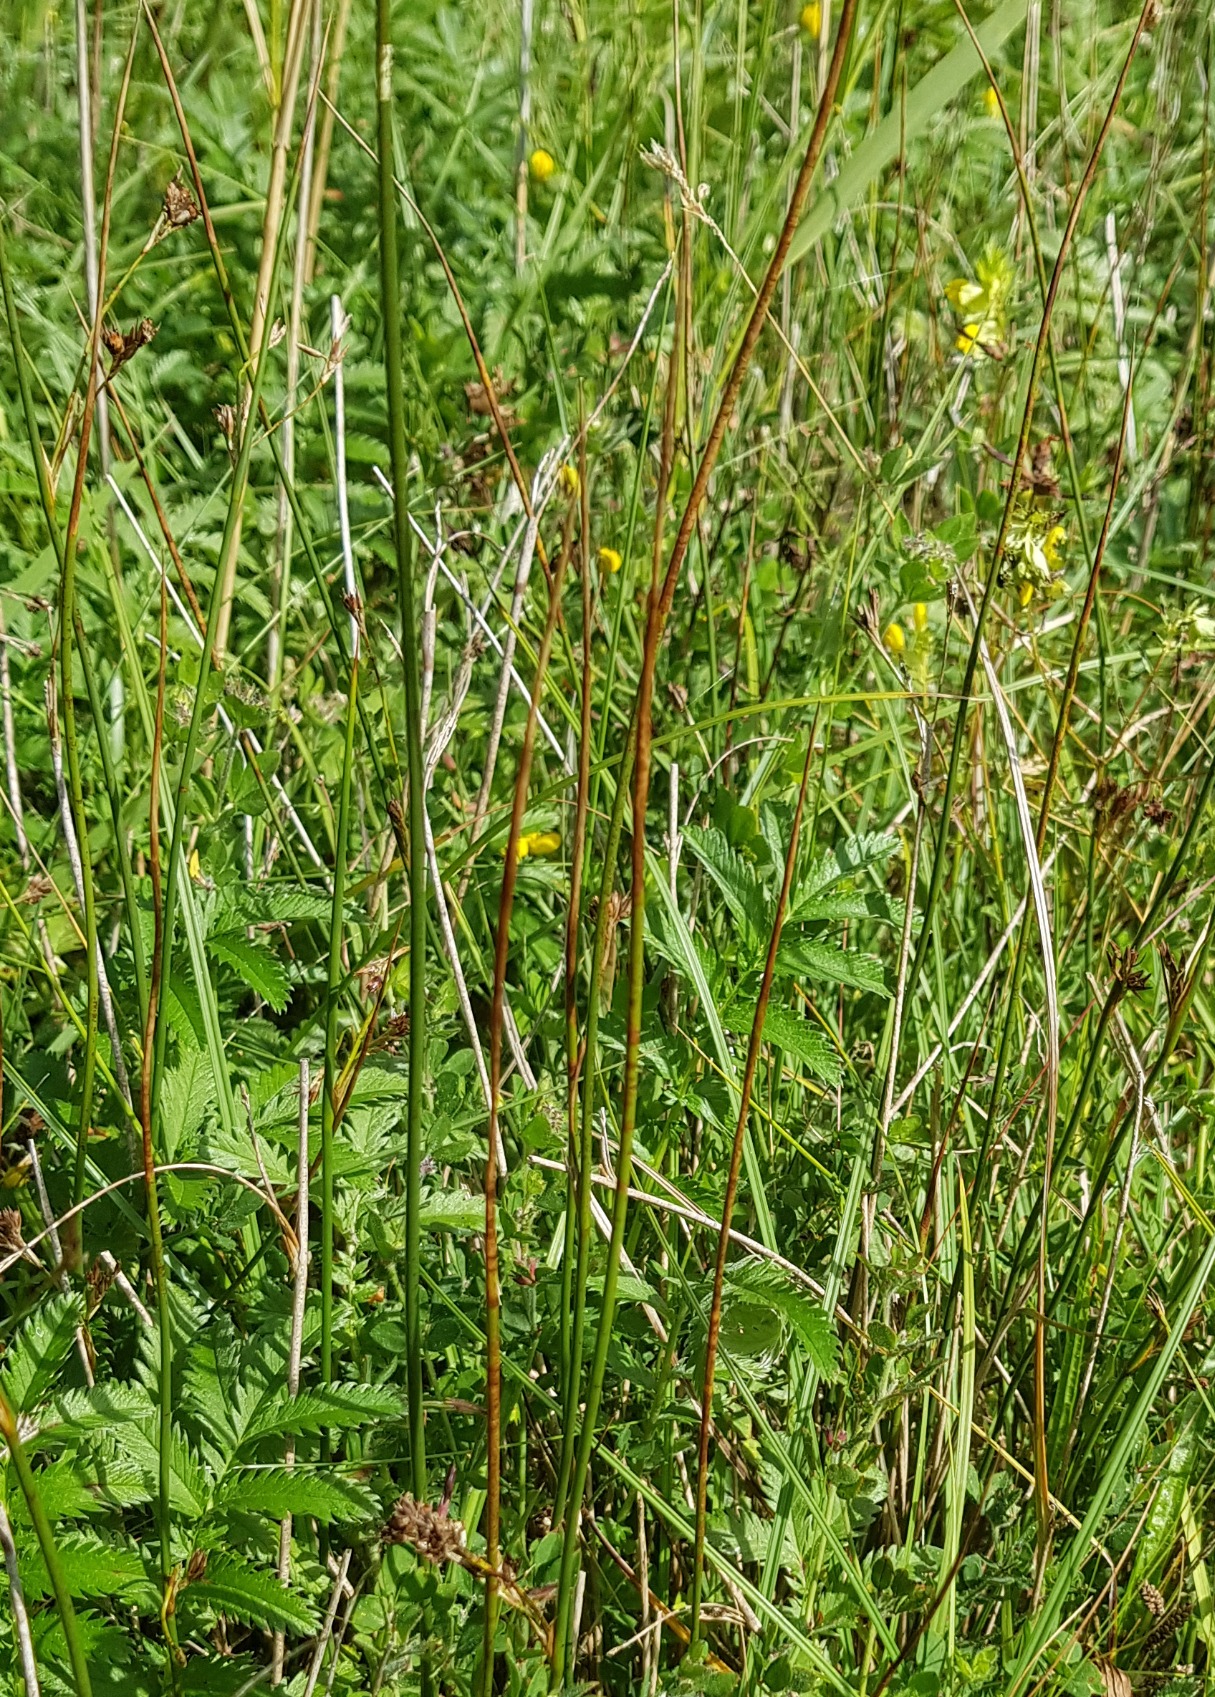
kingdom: Plantae
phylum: Tracheophyta
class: Magnoliopsida
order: Solanales
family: Convolvulaceae
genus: Juncus
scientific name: Juncus
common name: Klit-siv × tråd-siv
